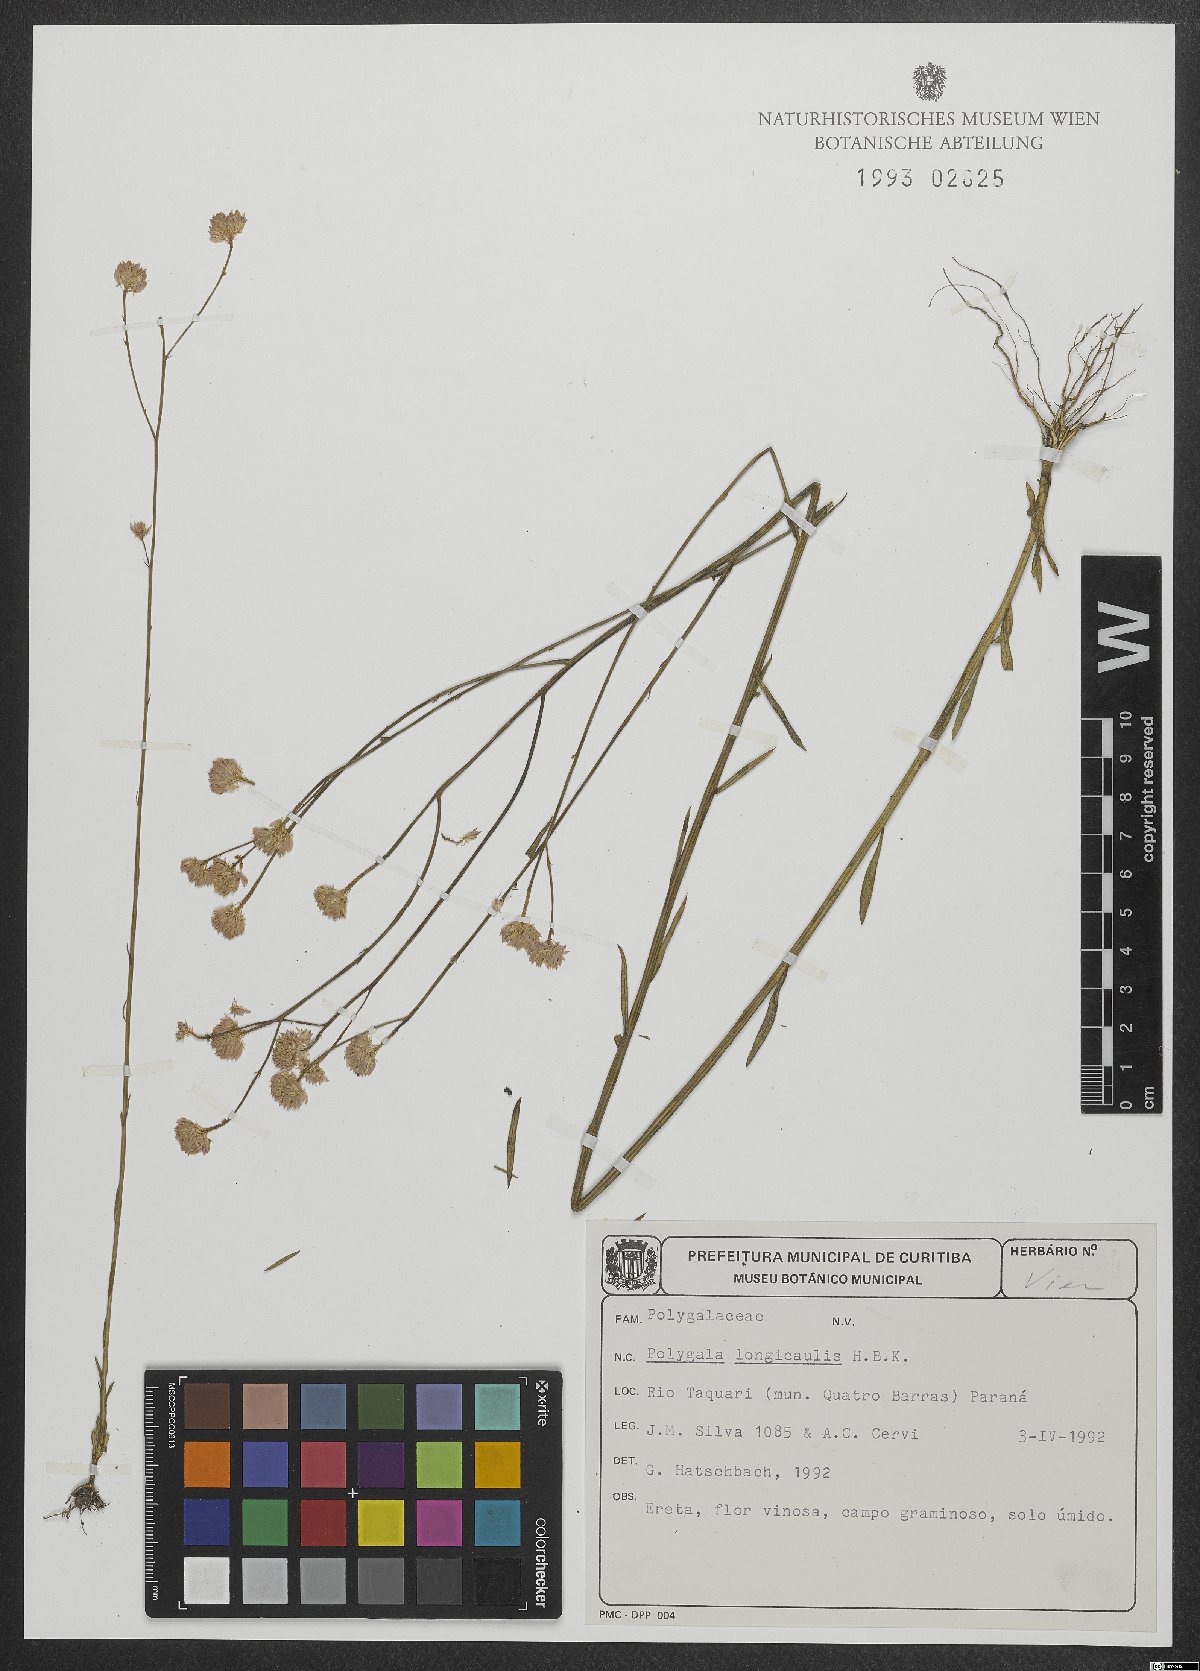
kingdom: Plantae
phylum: Tracheophyta
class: Magnoliopsida
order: Fabales
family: Polygalaceae
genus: Polygala
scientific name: Polygala longicaulis
